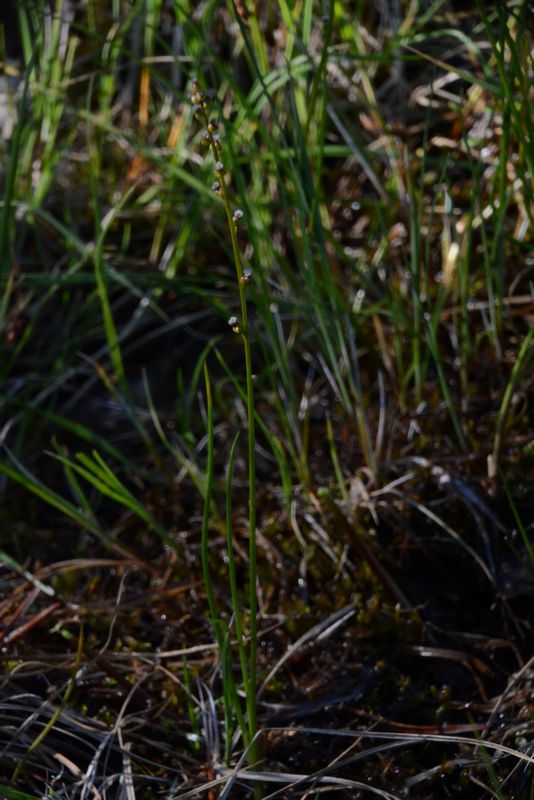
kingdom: Plantae
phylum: Tracheophyta
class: Liliopsida
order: Alismatales
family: Juncaginaceae
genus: Triglochin
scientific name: Triglochin palustris
